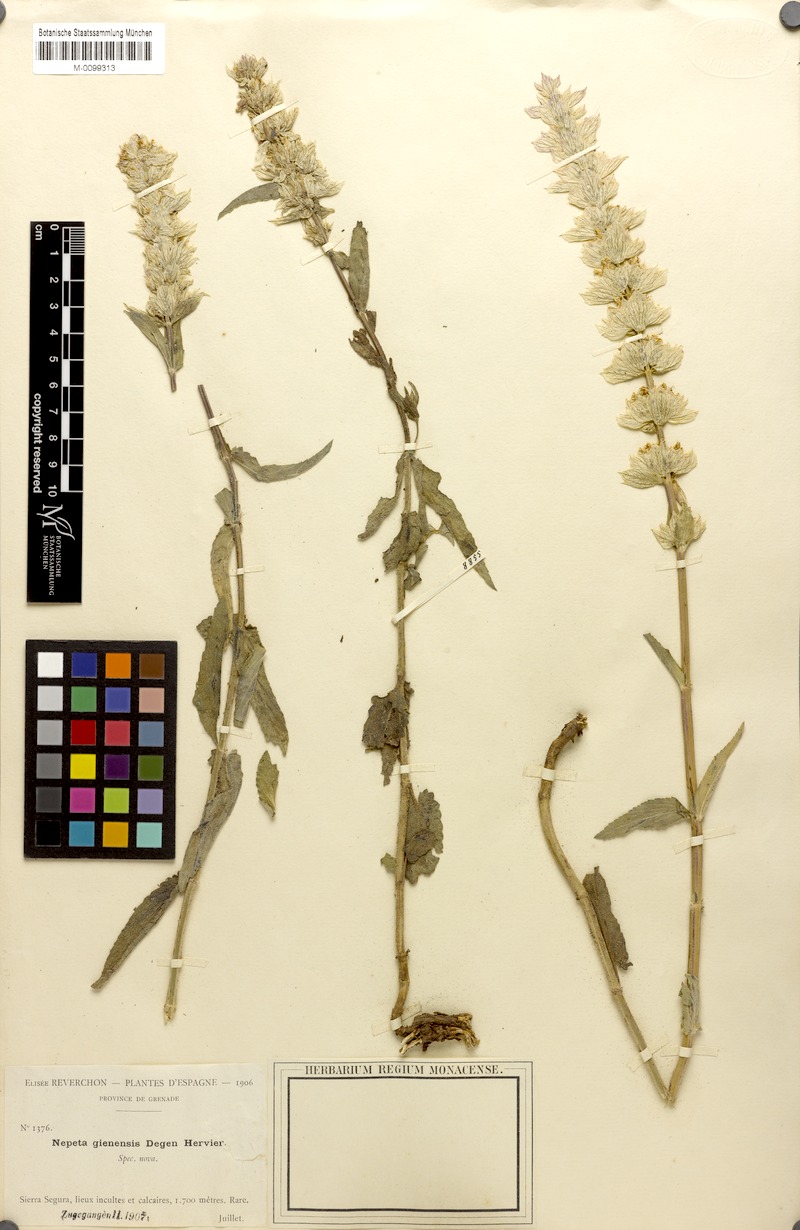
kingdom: Plantae
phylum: Tracheophyta
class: Magnoliopsida
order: Lamiales
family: Lamiaceae
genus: Nepeta
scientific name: Nepeta tuberosa
